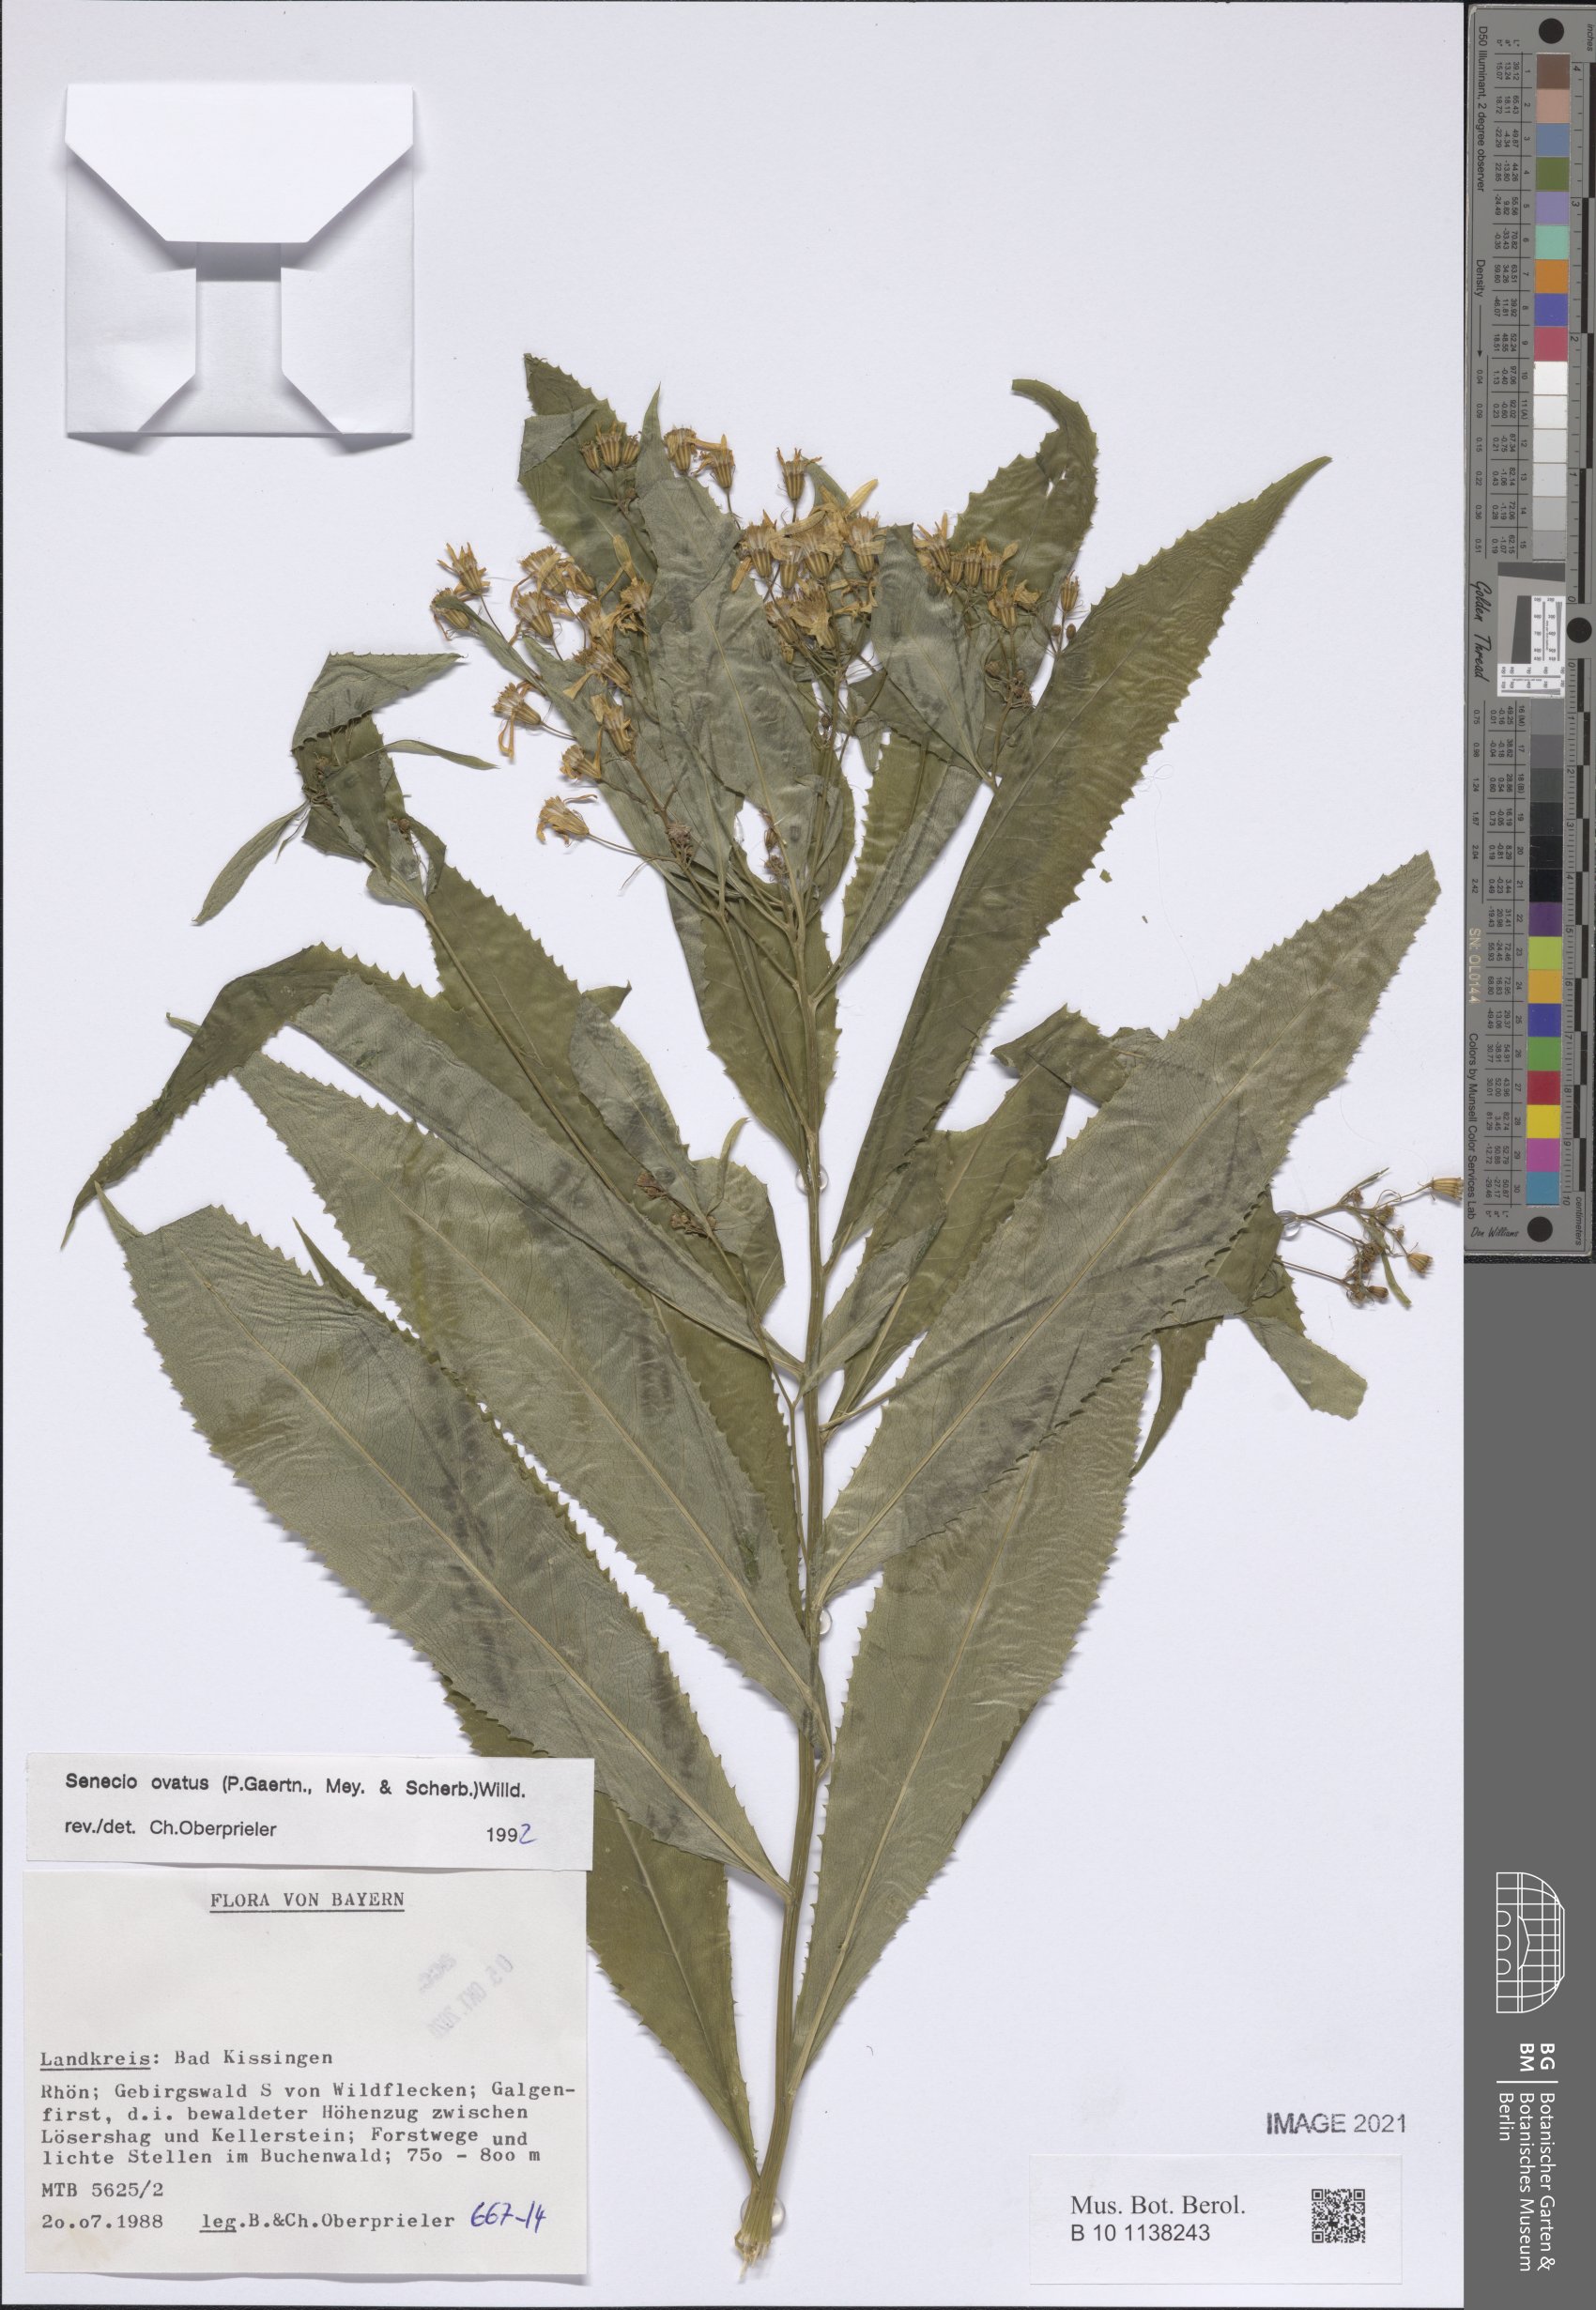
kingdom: Plantae
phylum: Tracheophyta
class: Magnoliopsida
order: Asterales
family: Asteraceae
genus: Senecio
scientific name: Senecio ovatus
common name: Wood ragwort
